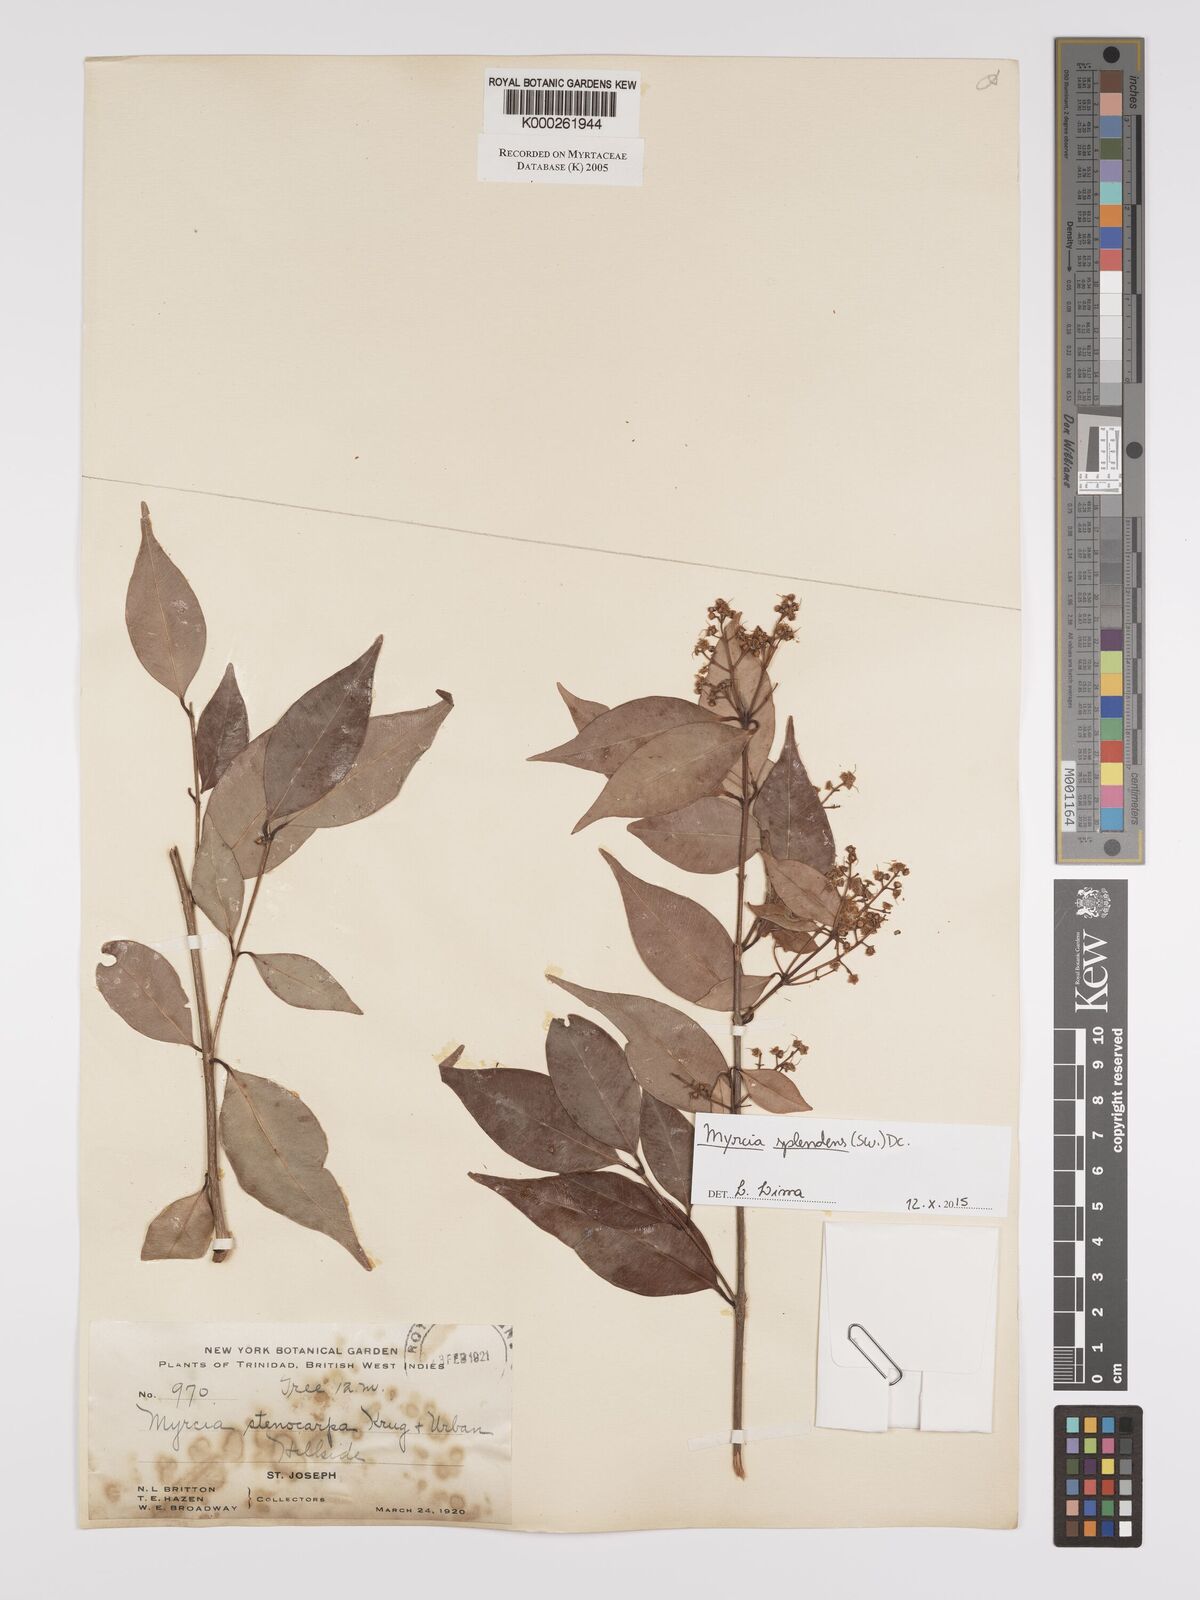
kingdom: Plantae
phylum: Tracheophyta
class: Magnoliopsida
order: Myrtales
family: Myrtaceae
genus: Myrcia
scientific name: Myrcia stenocarpa
